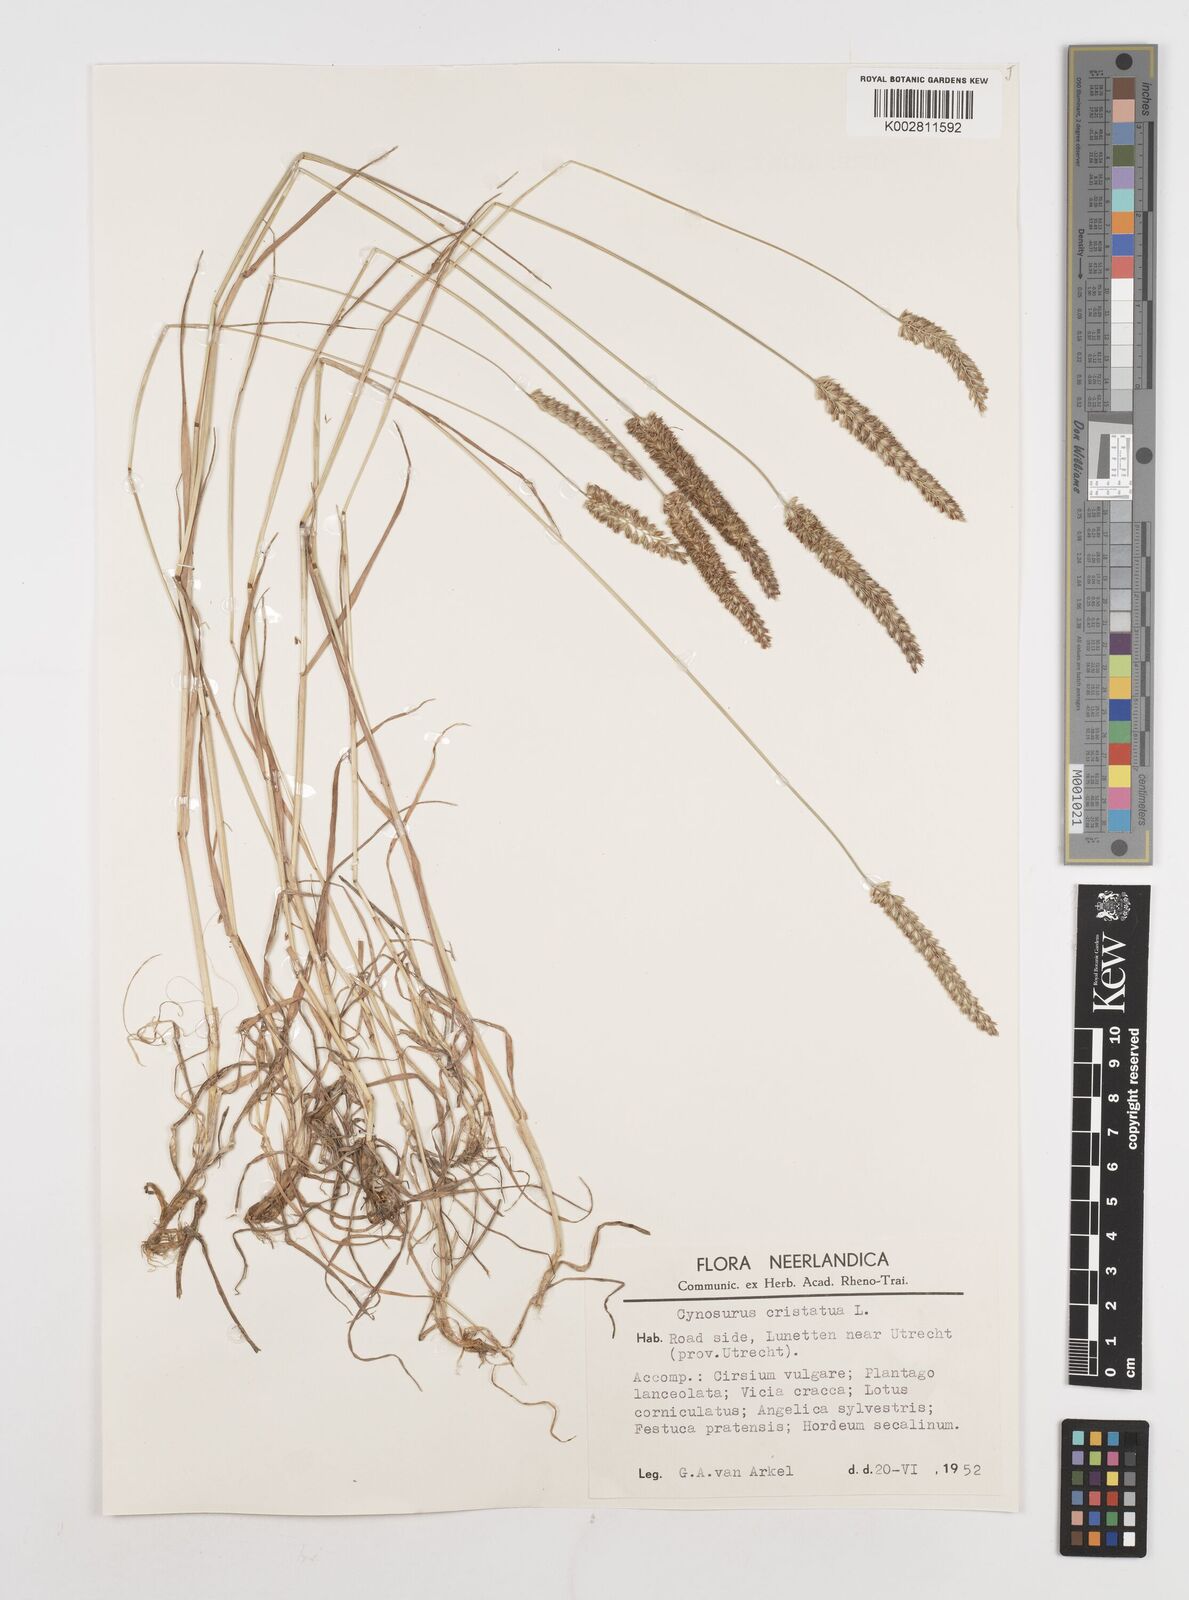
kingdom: Plantae
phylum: Tracheophyta
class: Liliopsida
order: Poales
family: Poaceae
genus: Cynosurus
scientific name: Cynosurus cristatus
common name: Crested dog's-tail
